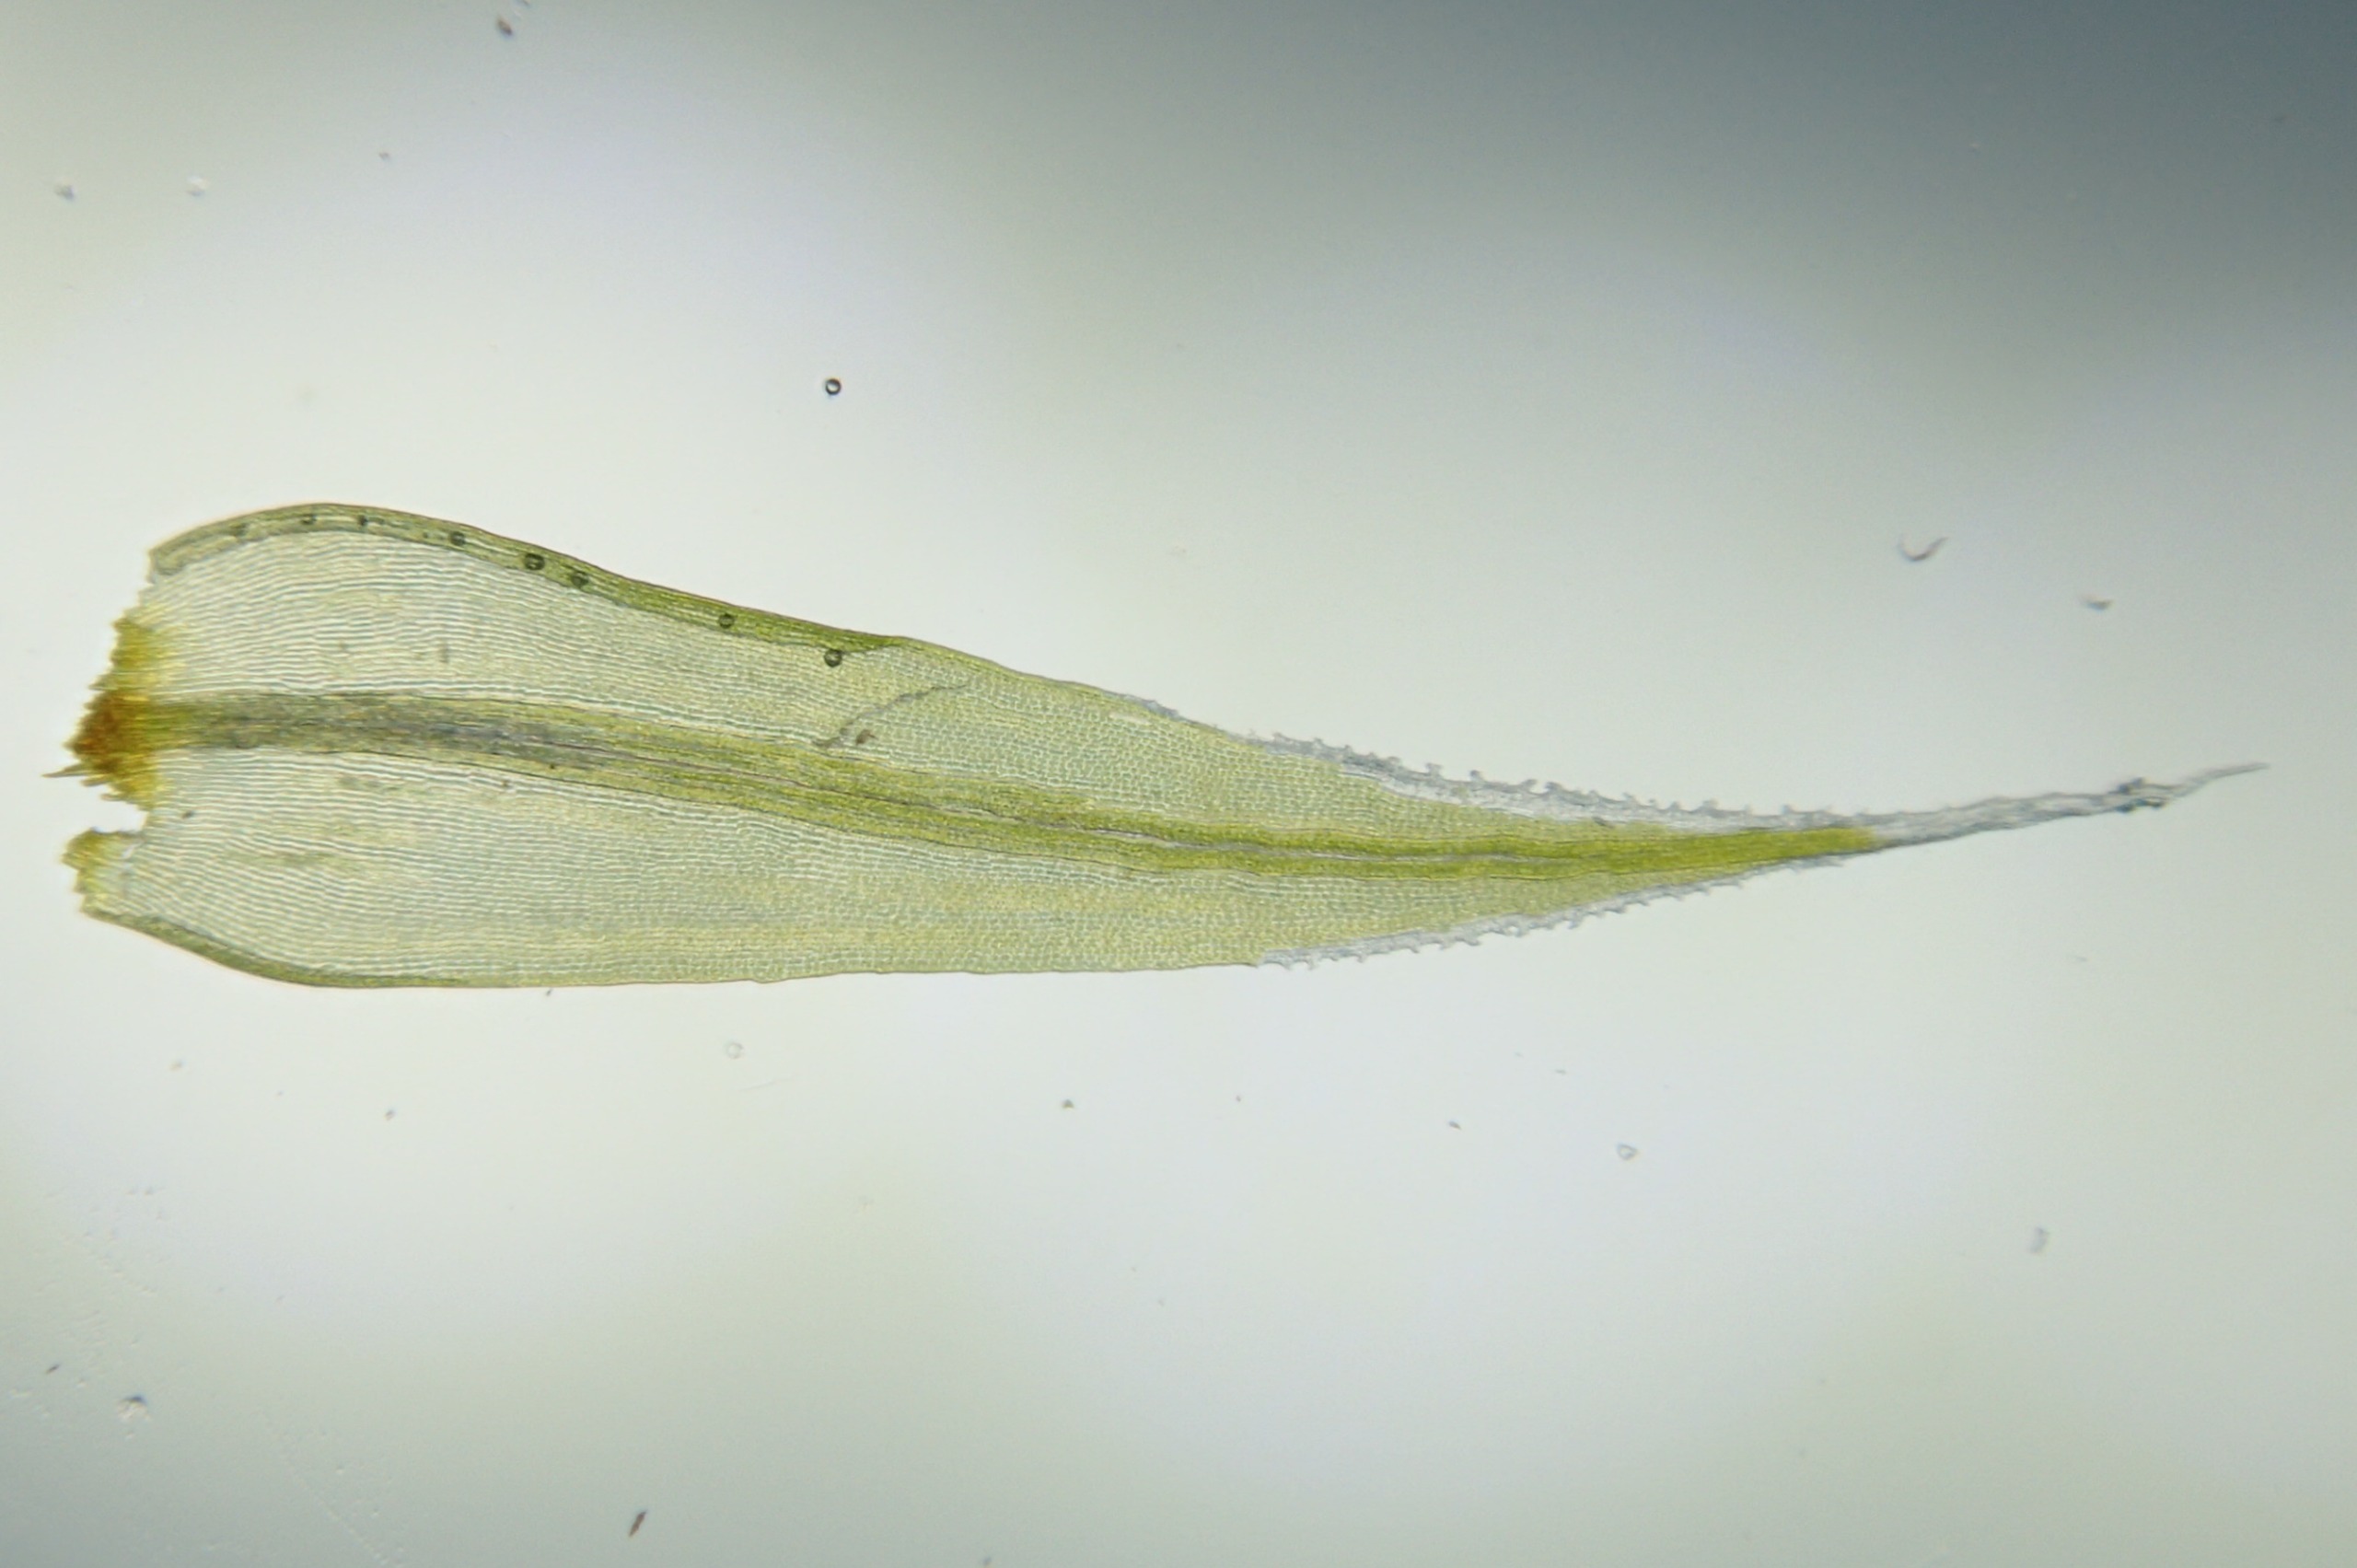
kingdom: Plantae
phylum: Bryophyta
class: Bryopsida
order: Grimmiales
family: Grimmiaceae
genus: Racomitrium
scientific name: Racomitrium lanuginosum
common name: Stor børstemos
